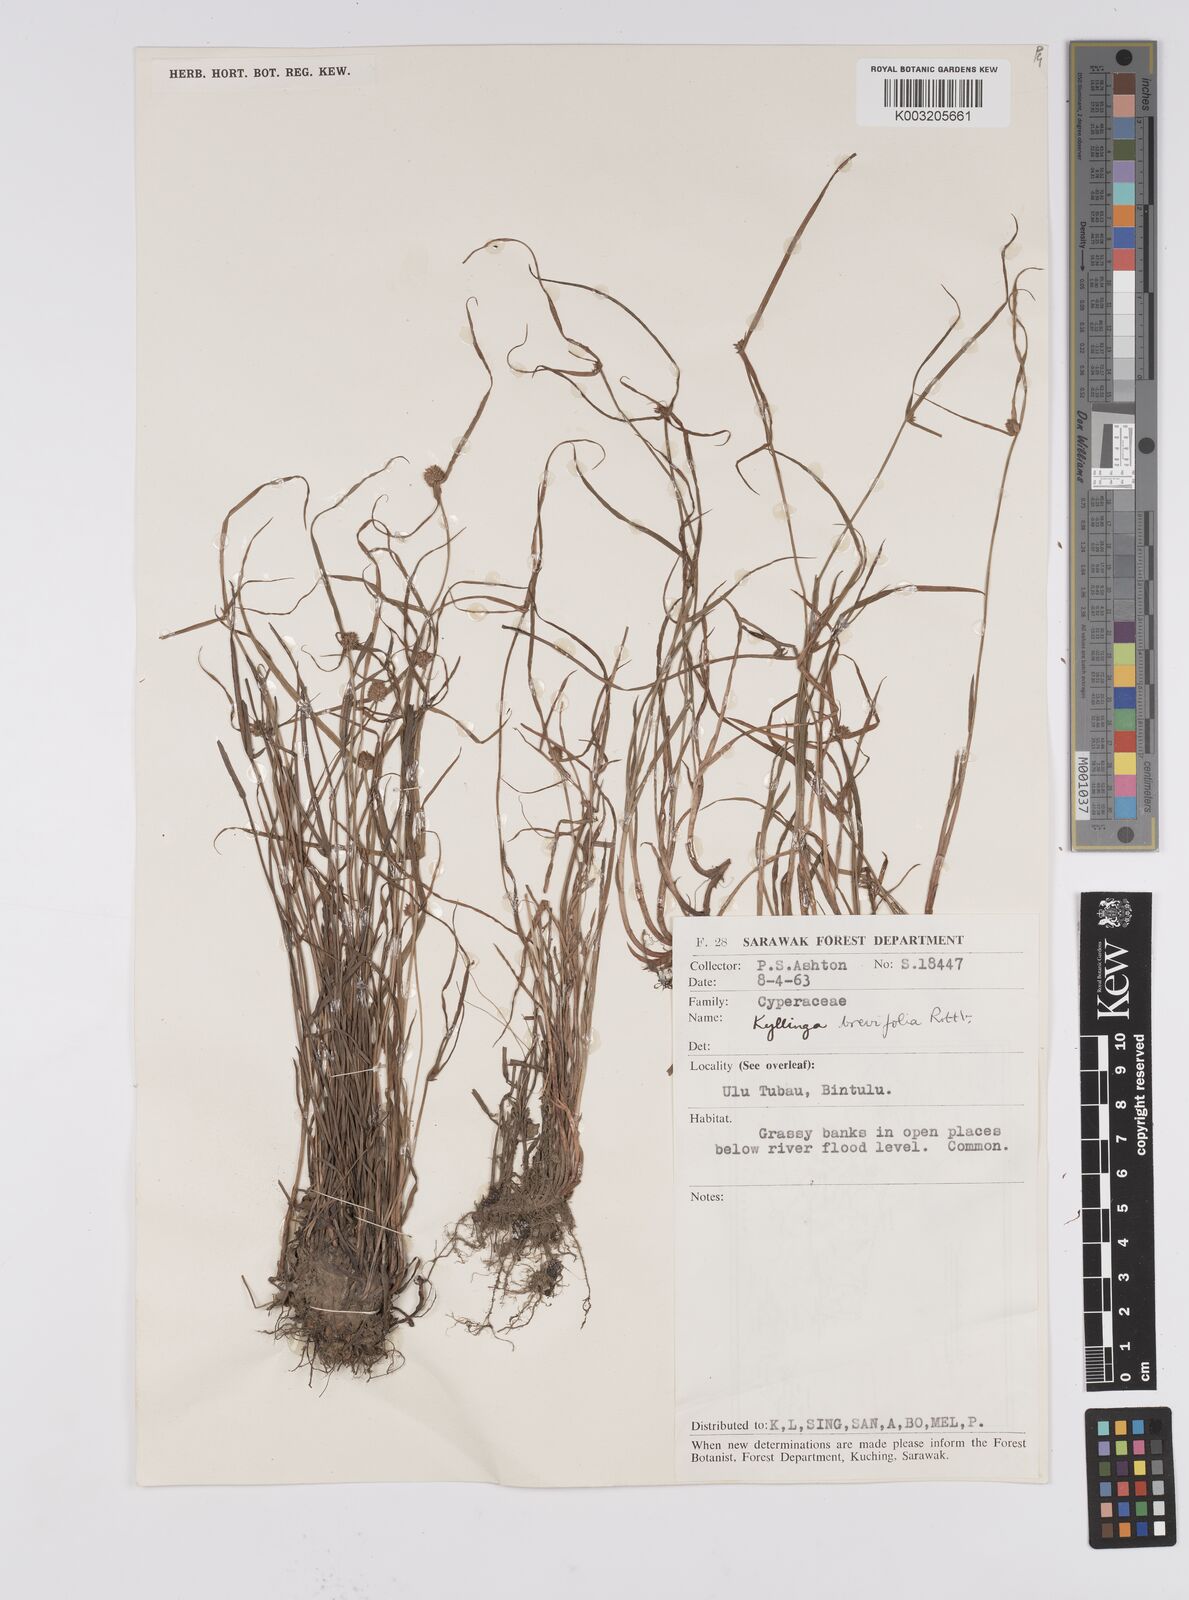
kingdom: Plantae
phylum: Tracheophyta
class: Liliopsida
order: Poales
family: Cyperaceae
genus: Cyperus
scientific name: Cyperus brevifolius
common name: Globe kyllinga
